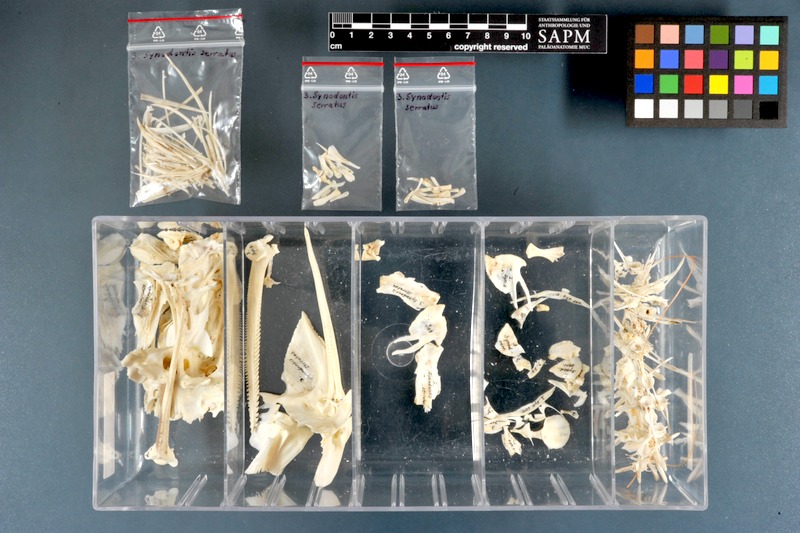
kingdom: Animalia
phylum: Chordata
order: Siluriformes
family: Mochokidae
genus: Synodontis
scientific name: Synodontis serratus
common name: Shield-head catfish
